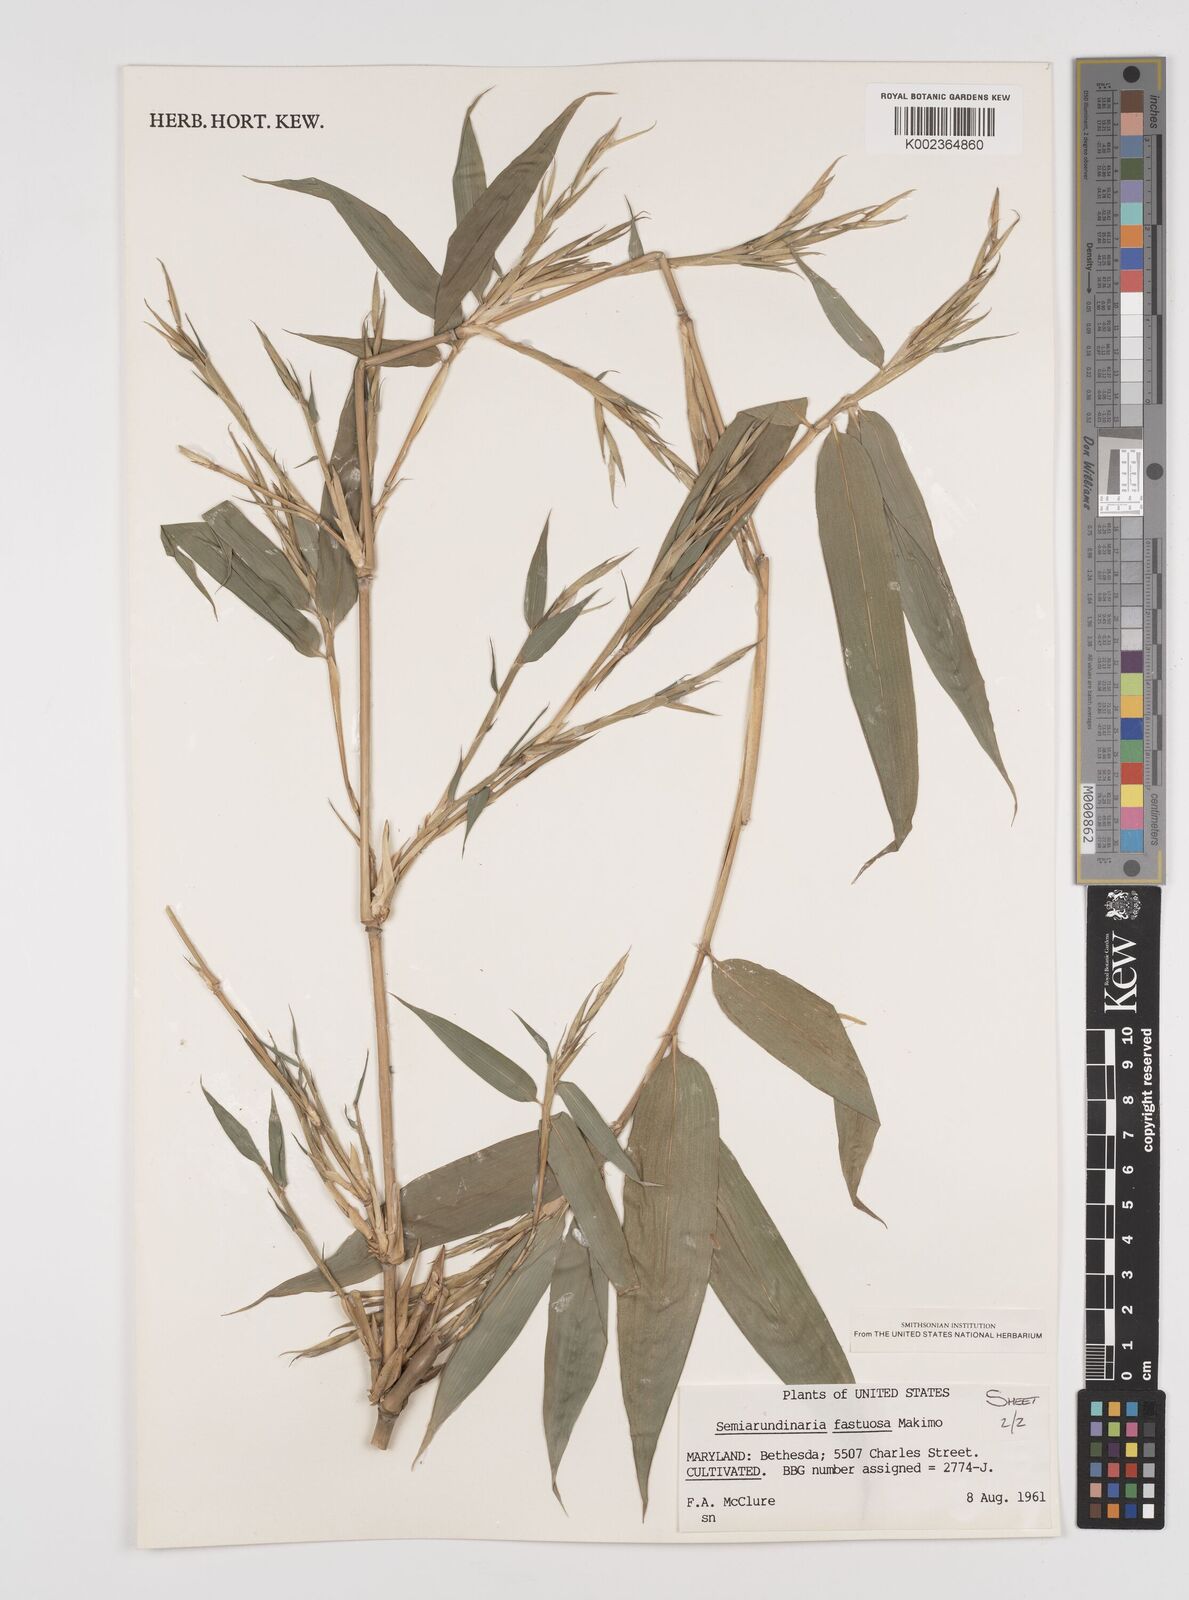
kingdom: Plantae
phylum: Tracheophyta
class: Liliopsida
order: Poales
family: Poaceae
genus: Semiarundinaria
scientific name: Semiarundinaria fastuosa
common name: Narihira bamboo
